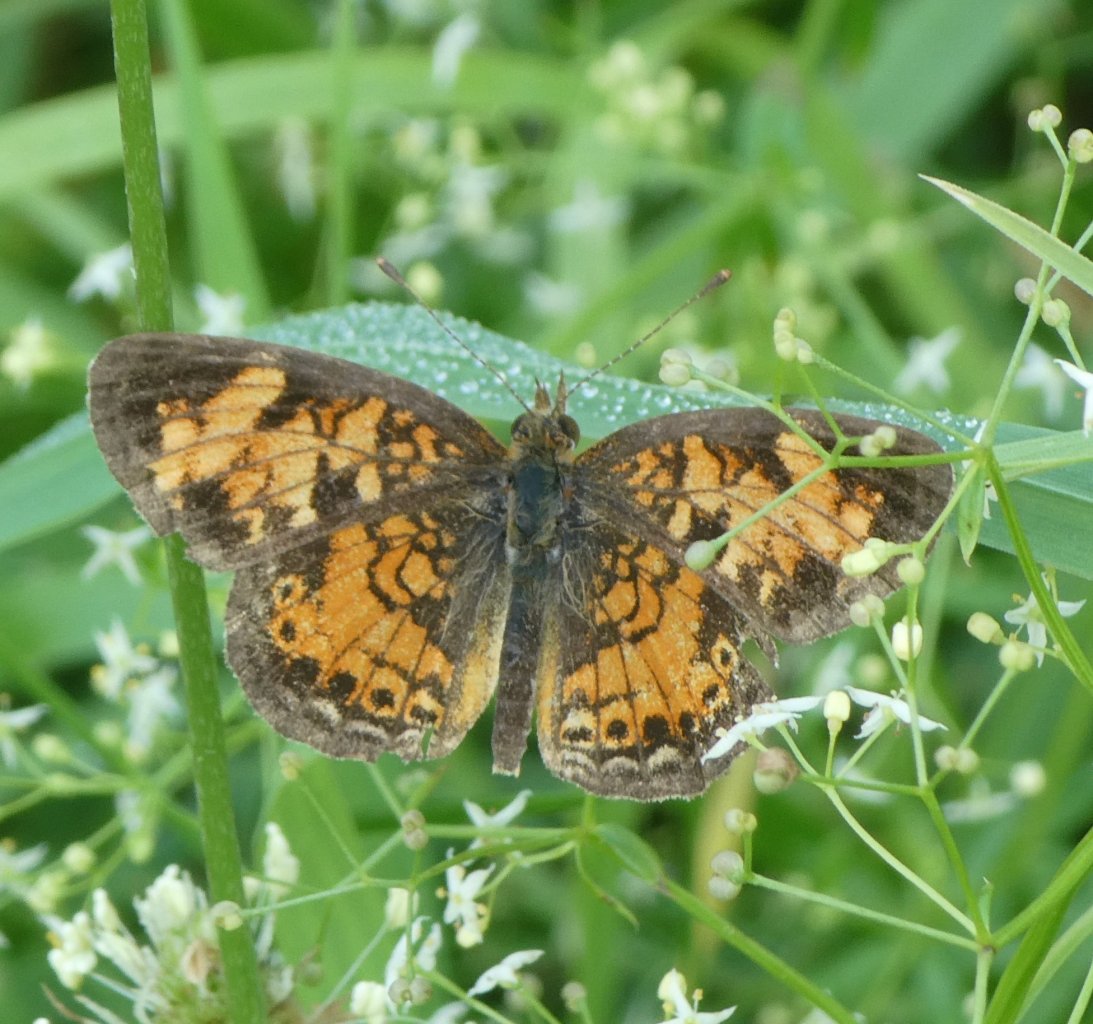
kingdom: Animalia
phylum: Arthropoda
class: Insecta
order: Lepidoptera
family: Nymphalidae
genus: Phyciodes
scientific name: Phyciodes tharos
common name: Pearl Crescent
